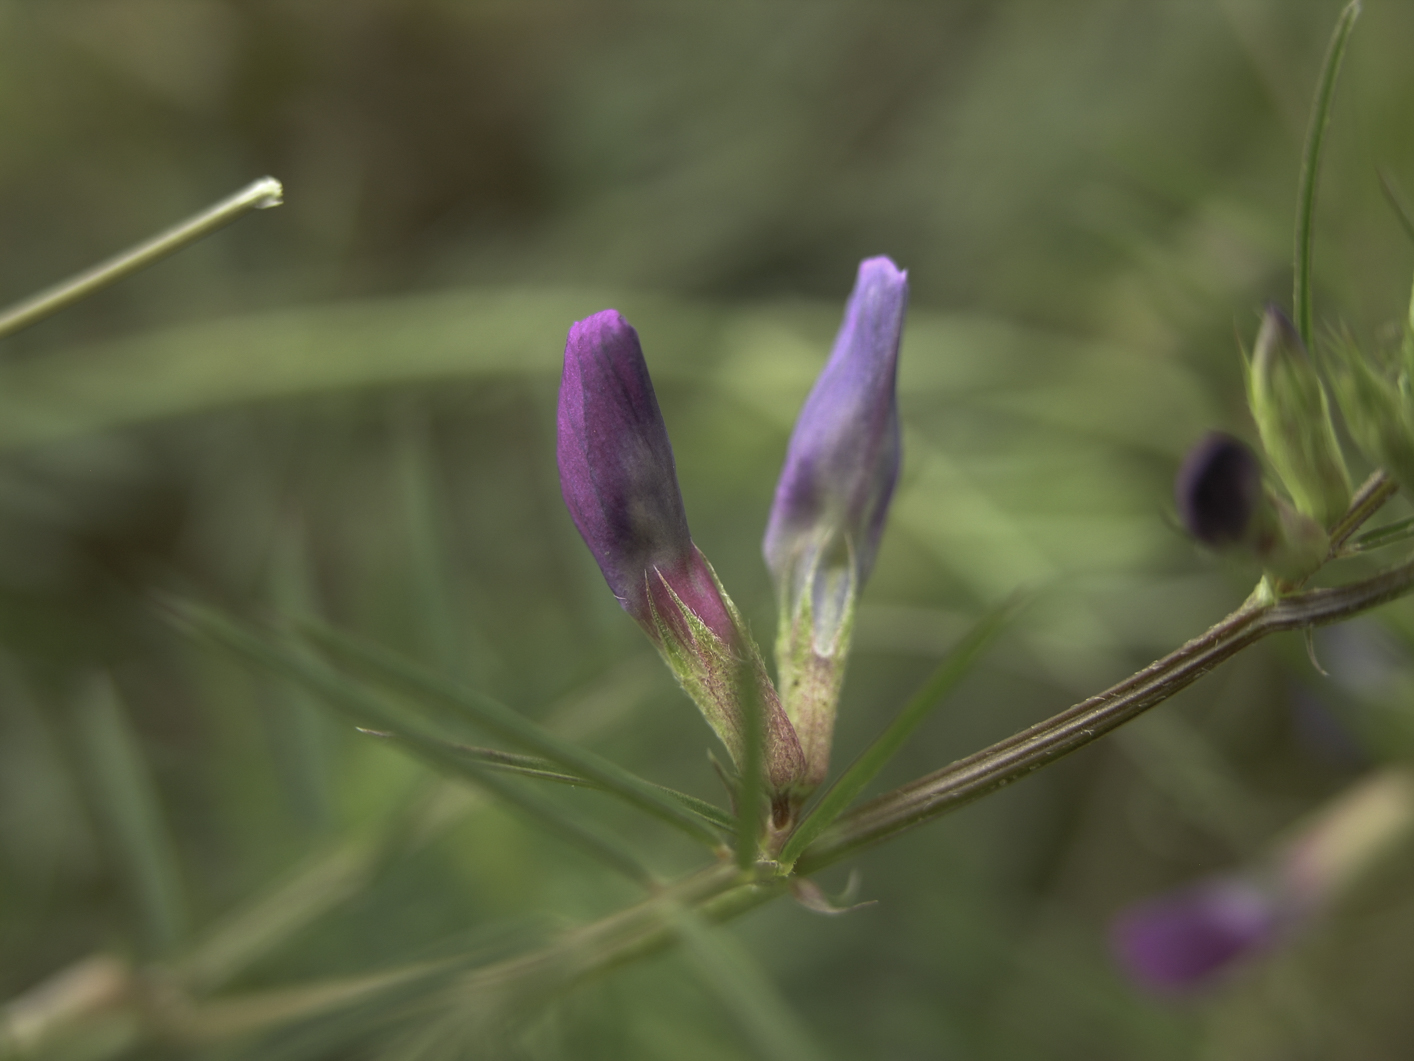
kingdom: Plantae
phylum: Tracheophyta
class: Magnoliopsida
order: Fabales
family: Fabaceae
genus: Vicia
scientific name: Vicia sativa
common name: Garden vetch
